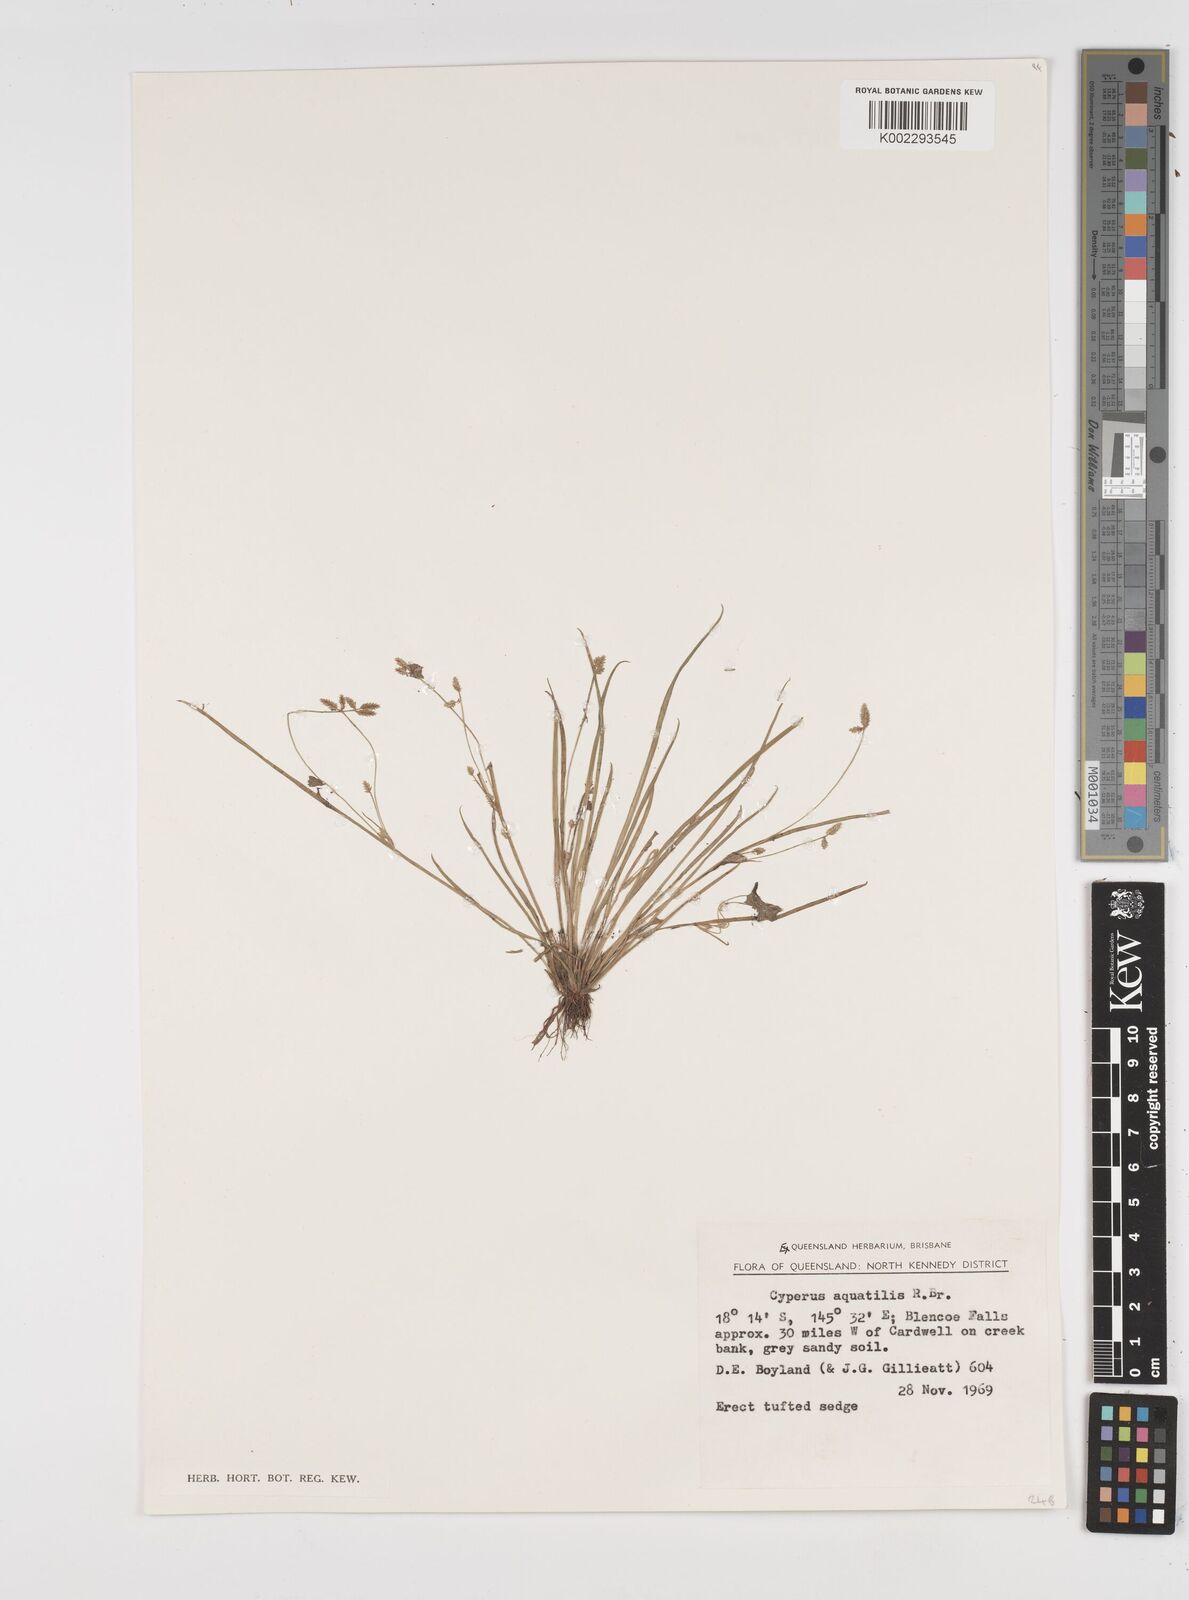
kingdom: Plantae
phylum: Tracheophyta
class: Liliopsida
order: Poales
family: Cyperaceae
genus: Cyperus
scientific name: Cyperus aquatilis
